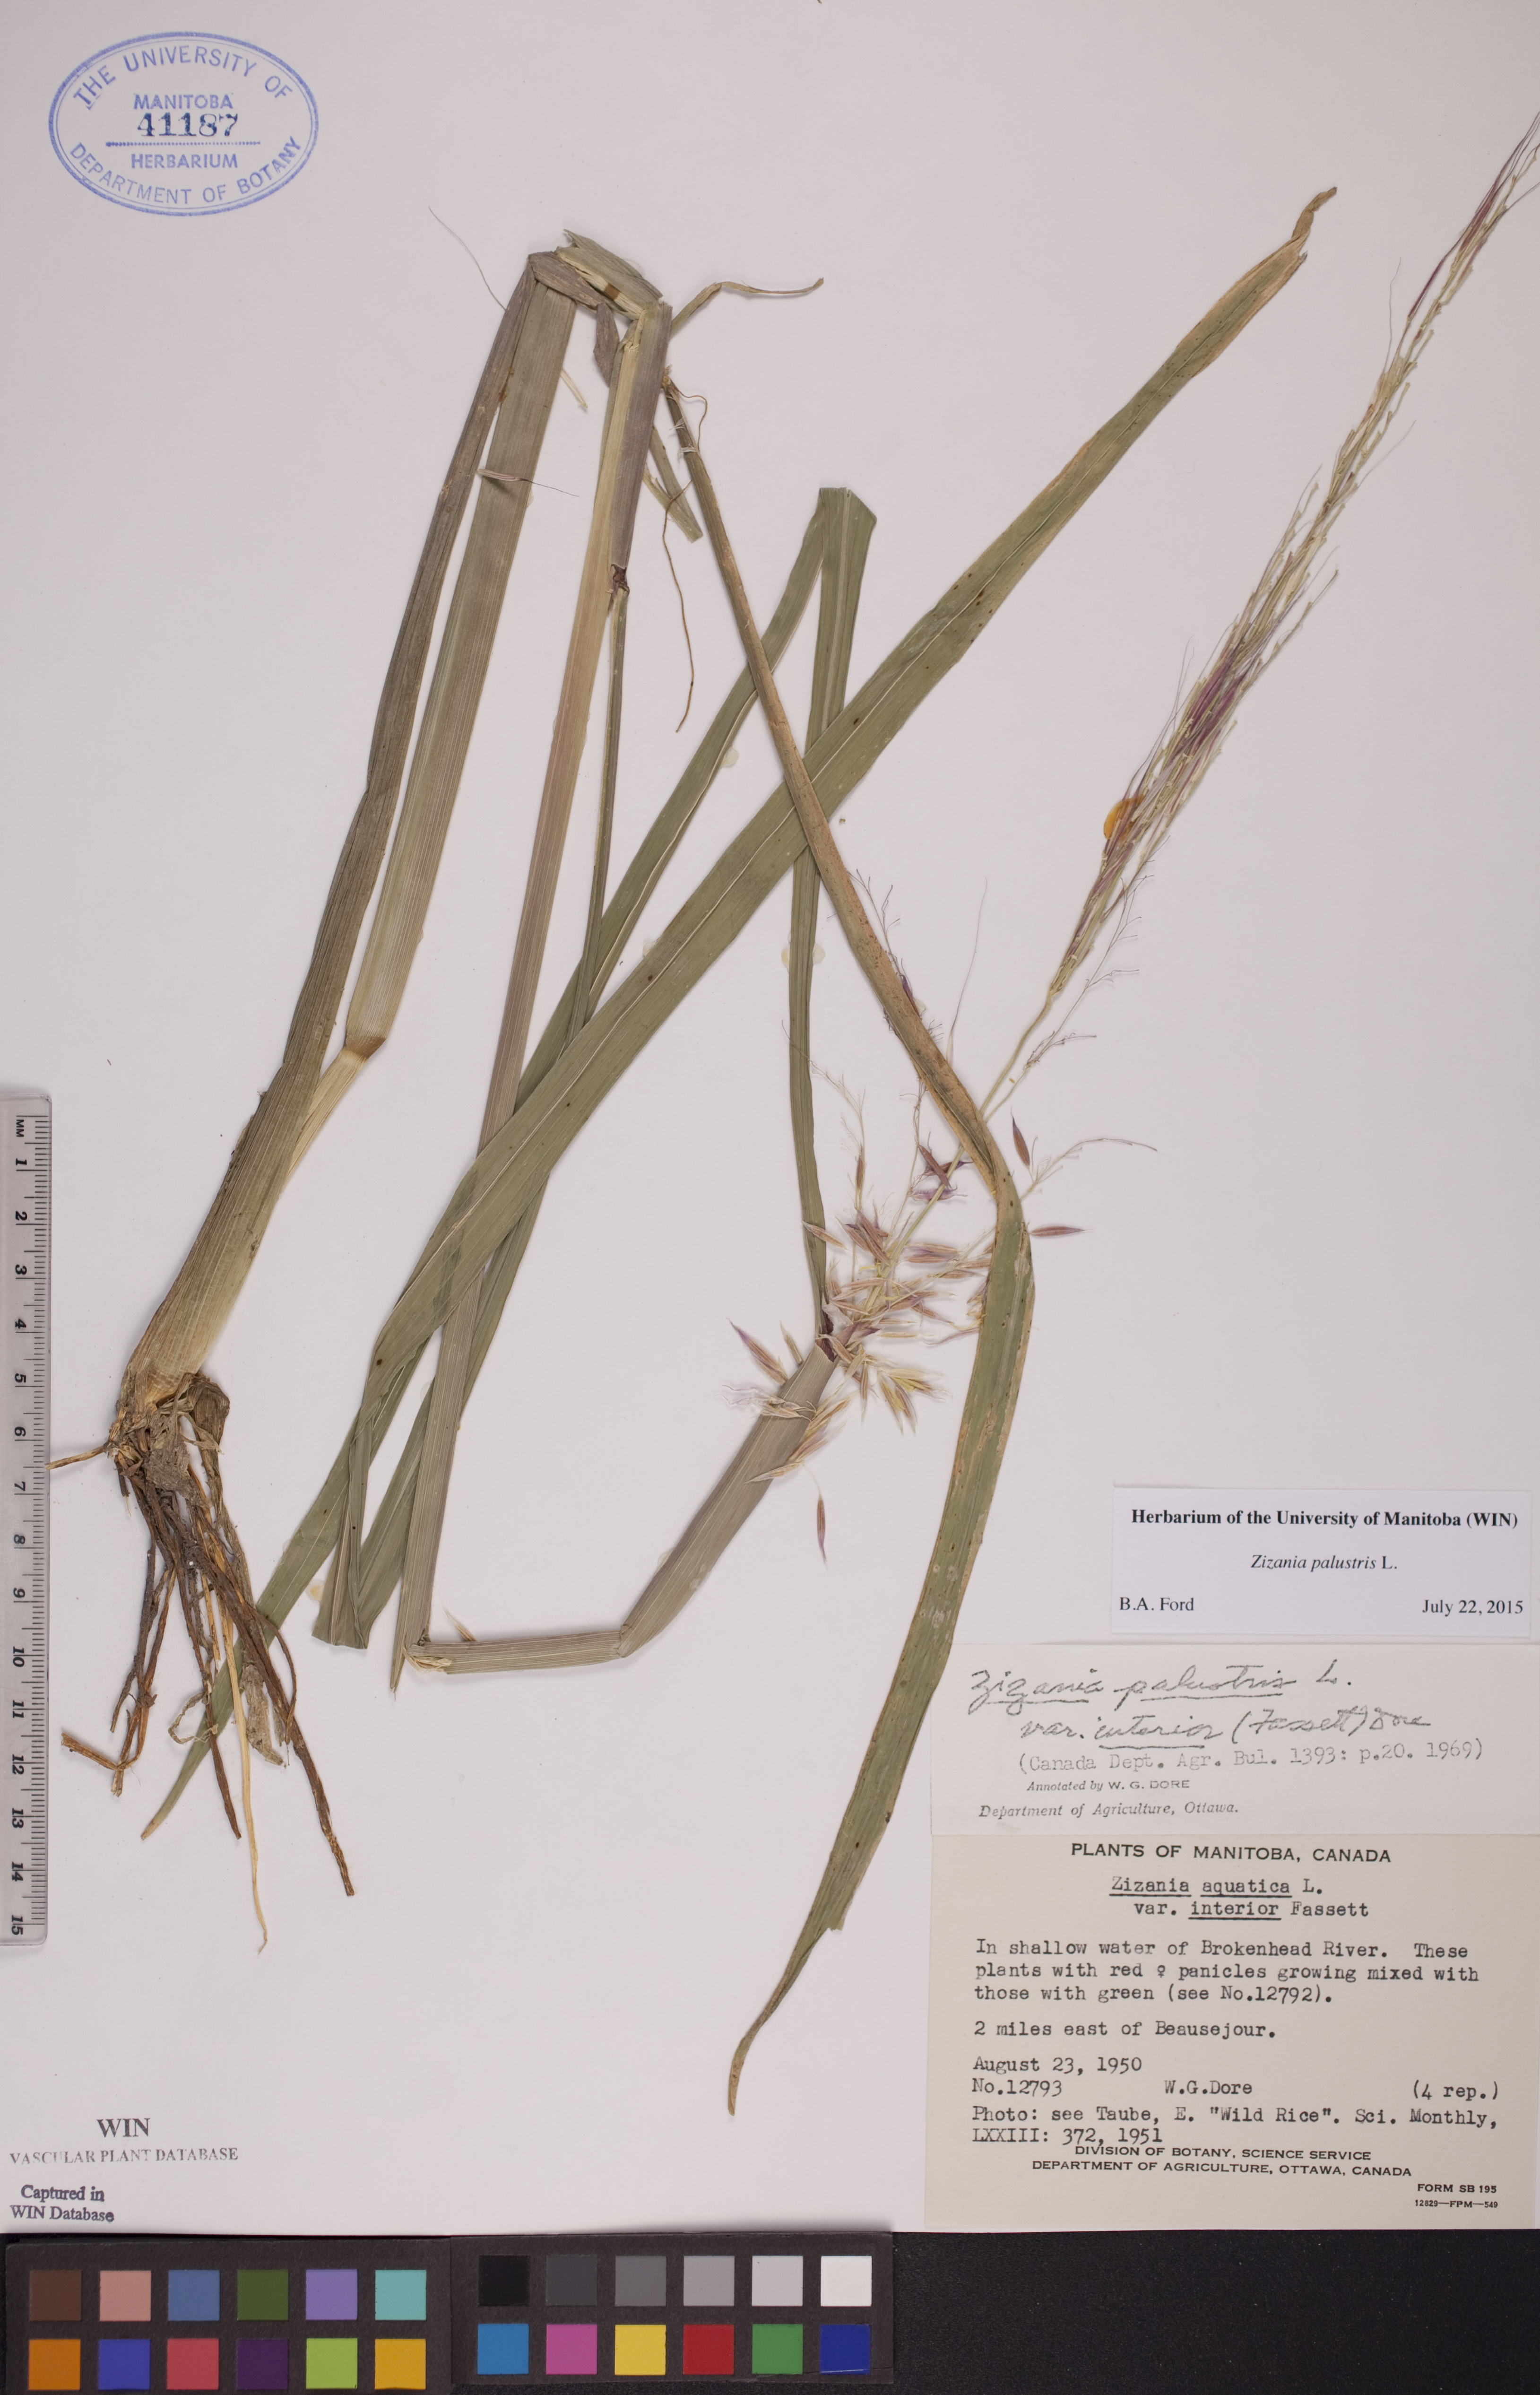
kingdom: Plantae
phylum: Tracheophyta
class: Liliopsida
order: Poales
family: Poaceae
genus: Zizania
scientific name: Zizania palustris
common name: Northern wild rice
